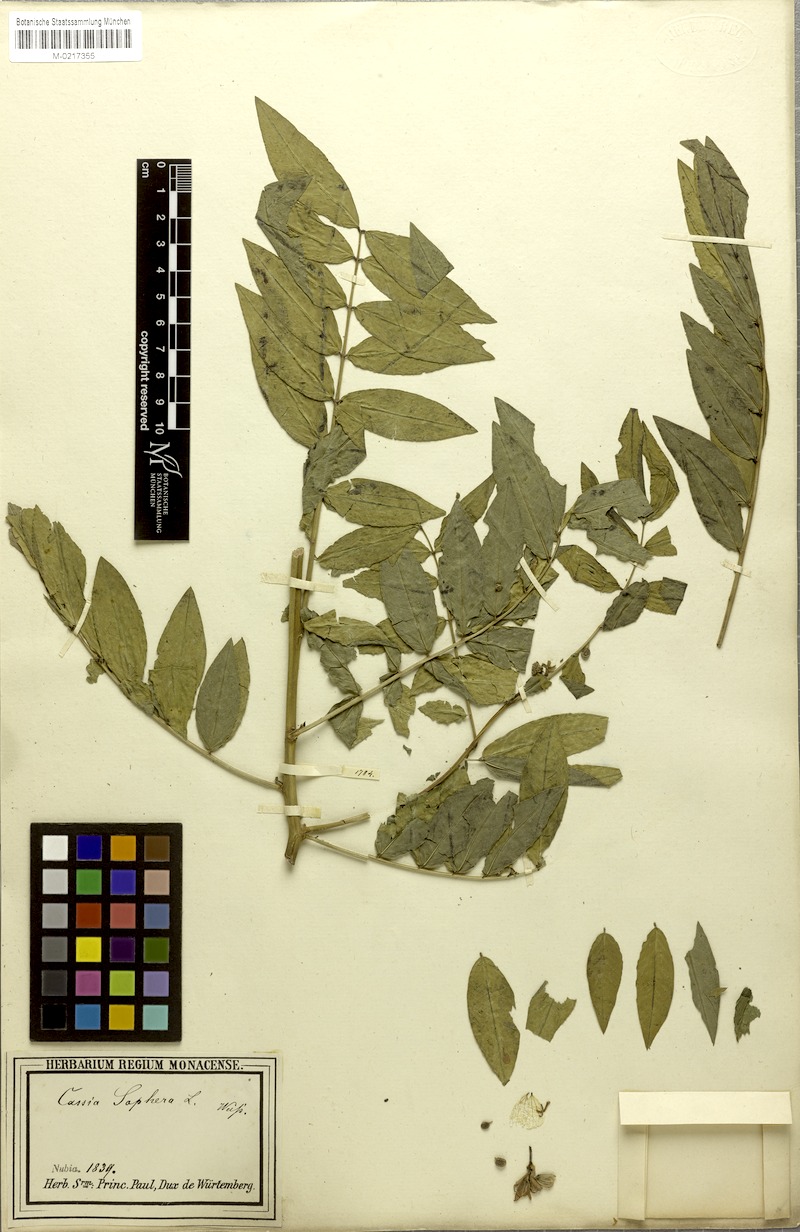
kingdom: Plantae
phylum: Tracheophyta
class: Magnoliopsida
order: Fabales
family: Fabaceae
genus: Senna
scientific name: Senna occidentalis
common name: Septicweed
